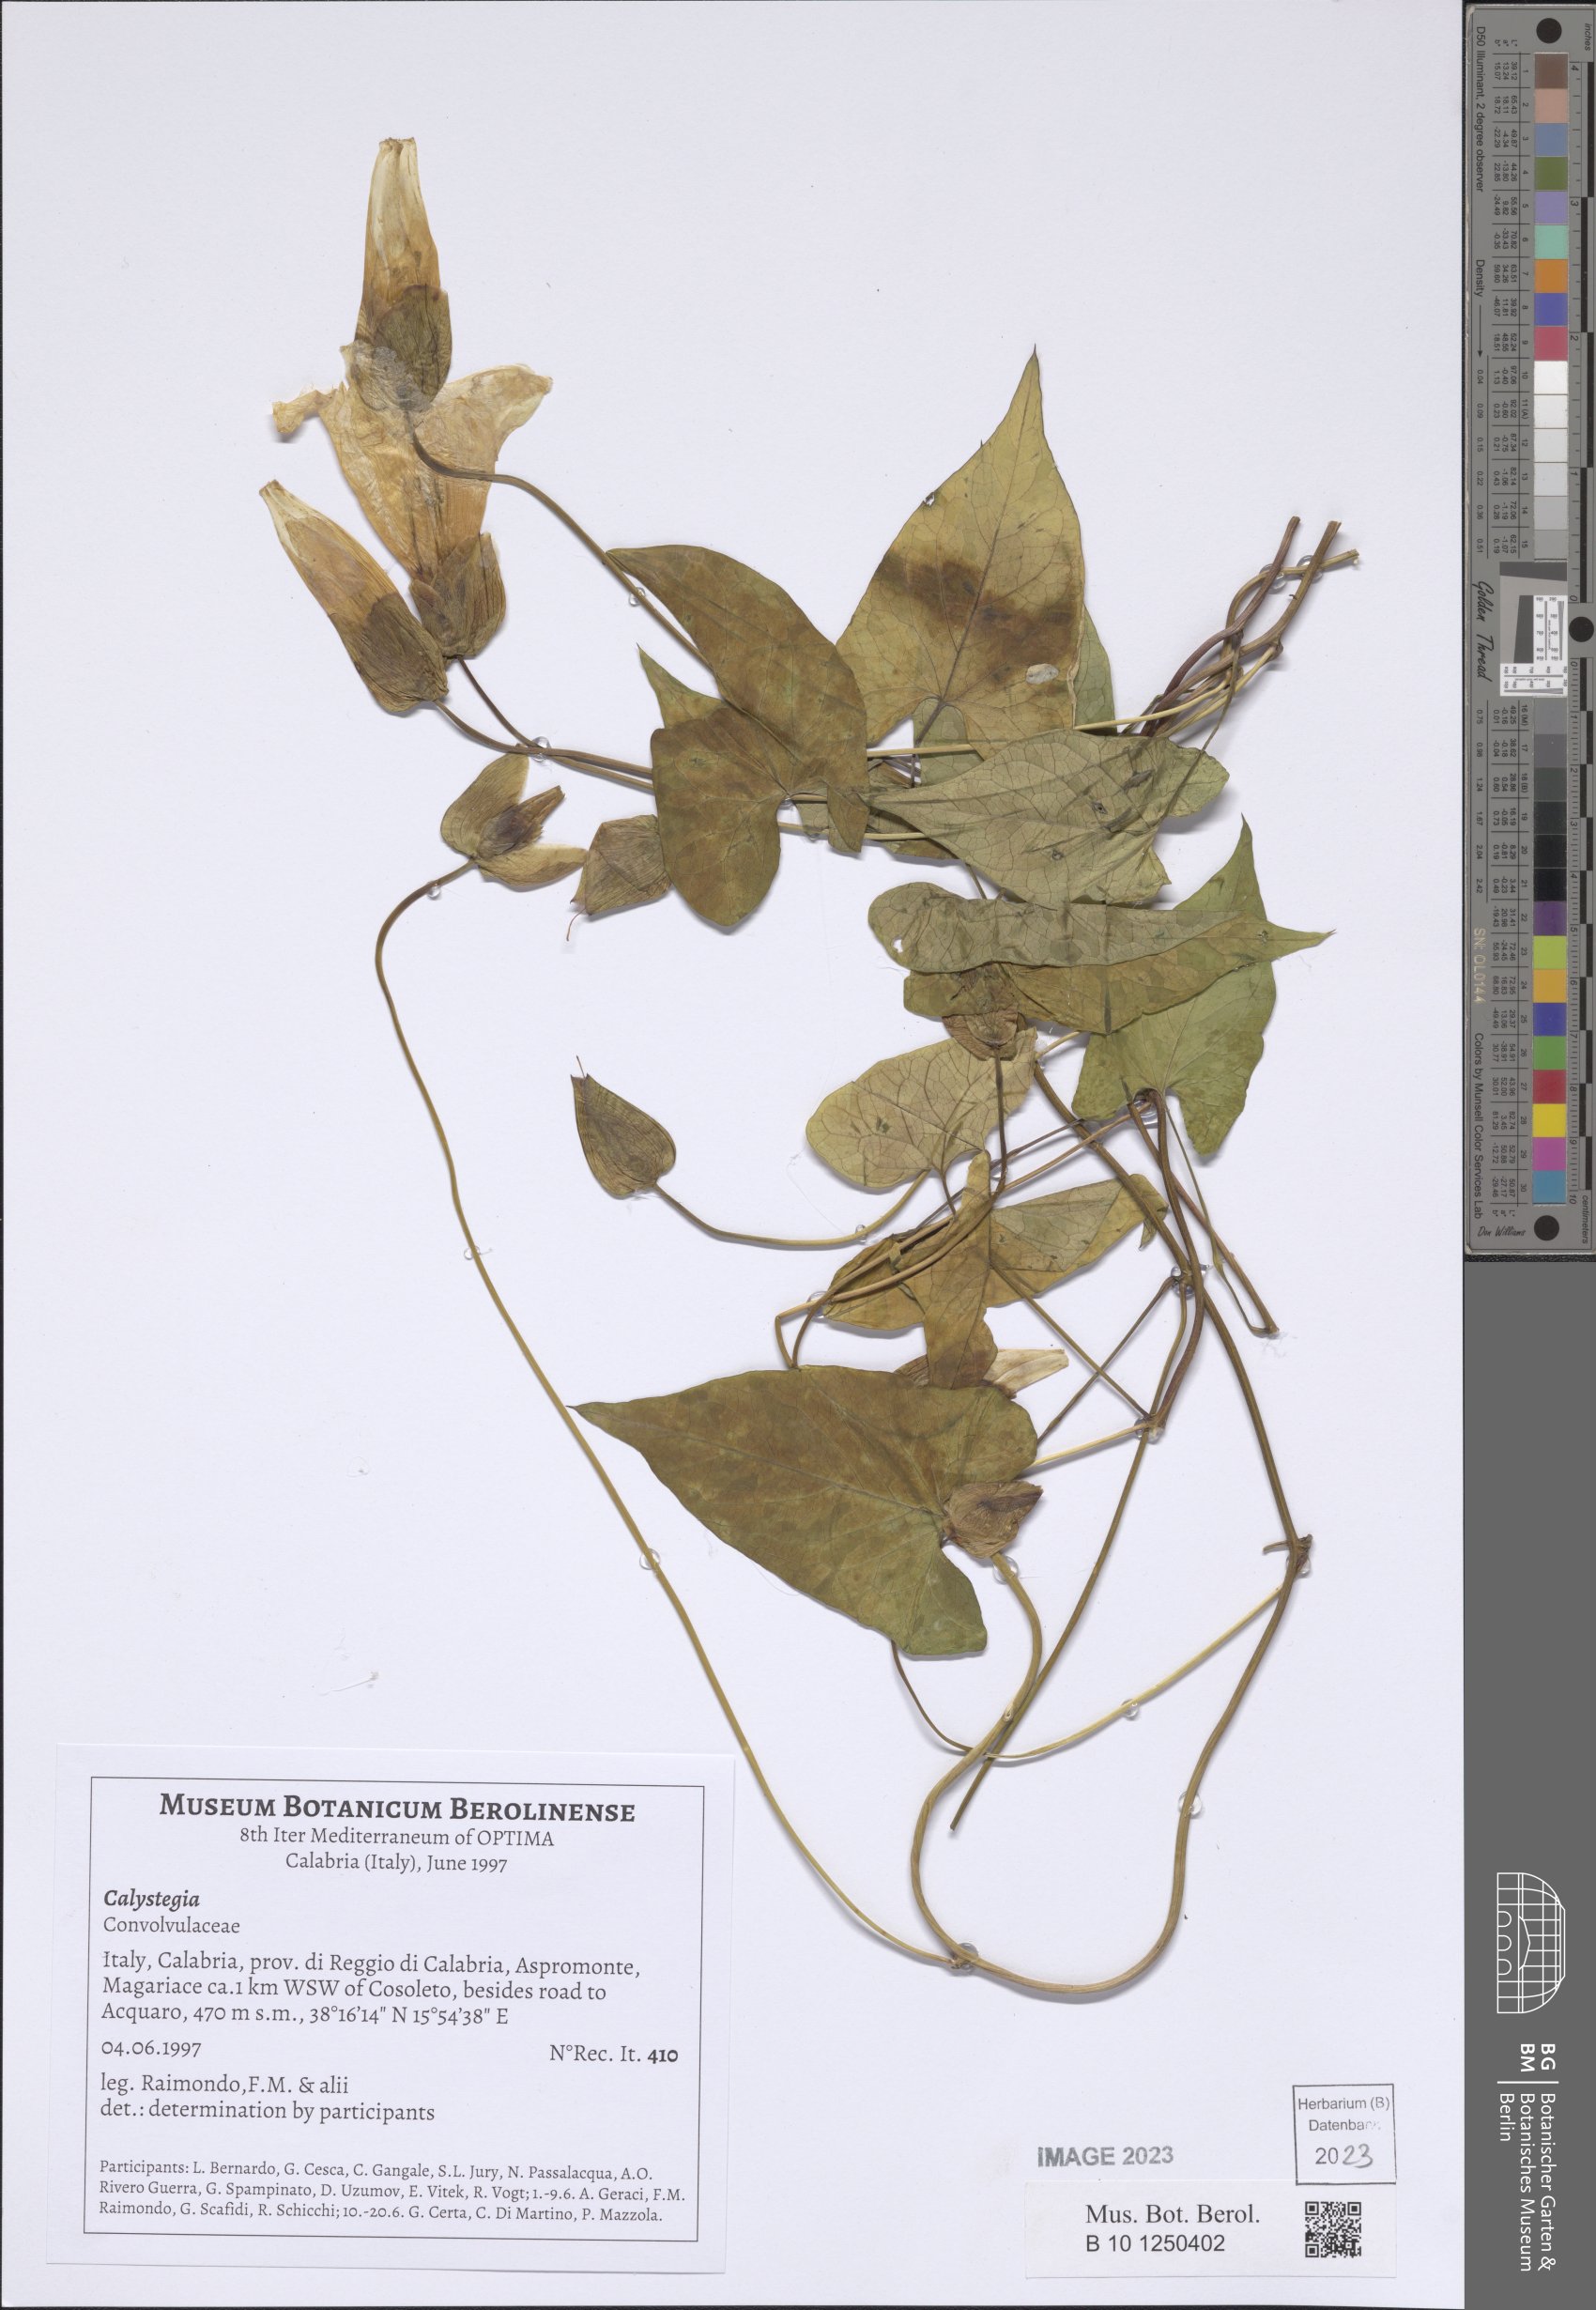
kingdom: Plantae
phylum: Tracheophyta
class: Magnoliopsida
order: Solanales
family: Convolvulaceae
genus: Calystegia
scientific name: Calystegia
